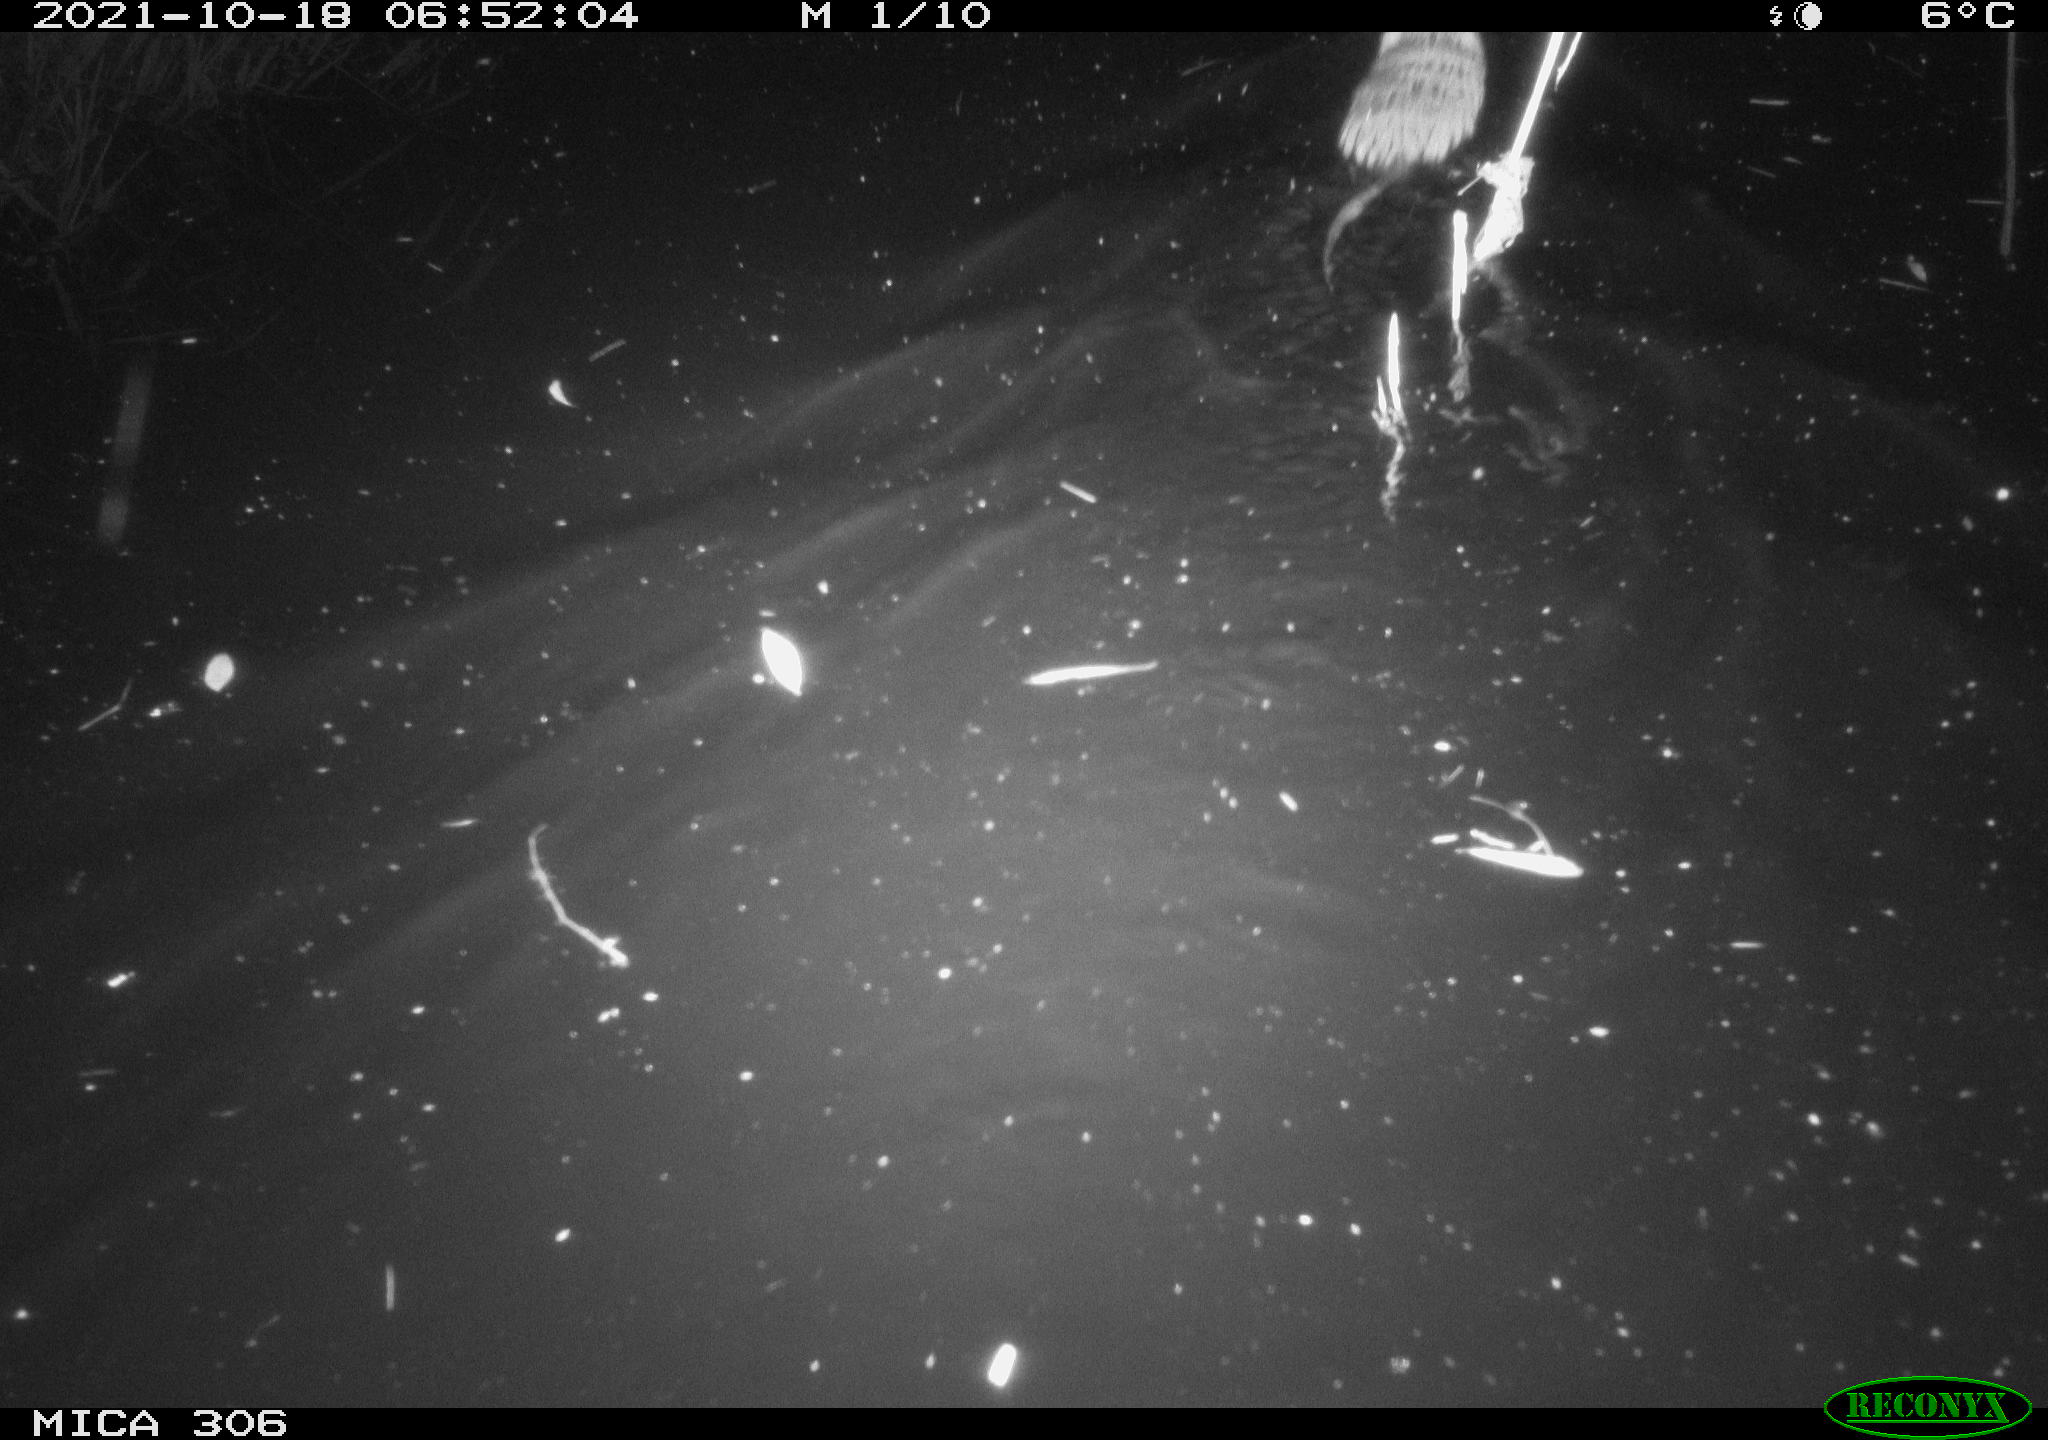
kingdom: Animalia
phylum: Chordata
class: Mammalia
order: Rodentia
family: Cricetidae
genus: Ondatra
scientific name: Ondatra zibethicus
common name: Muskrat
